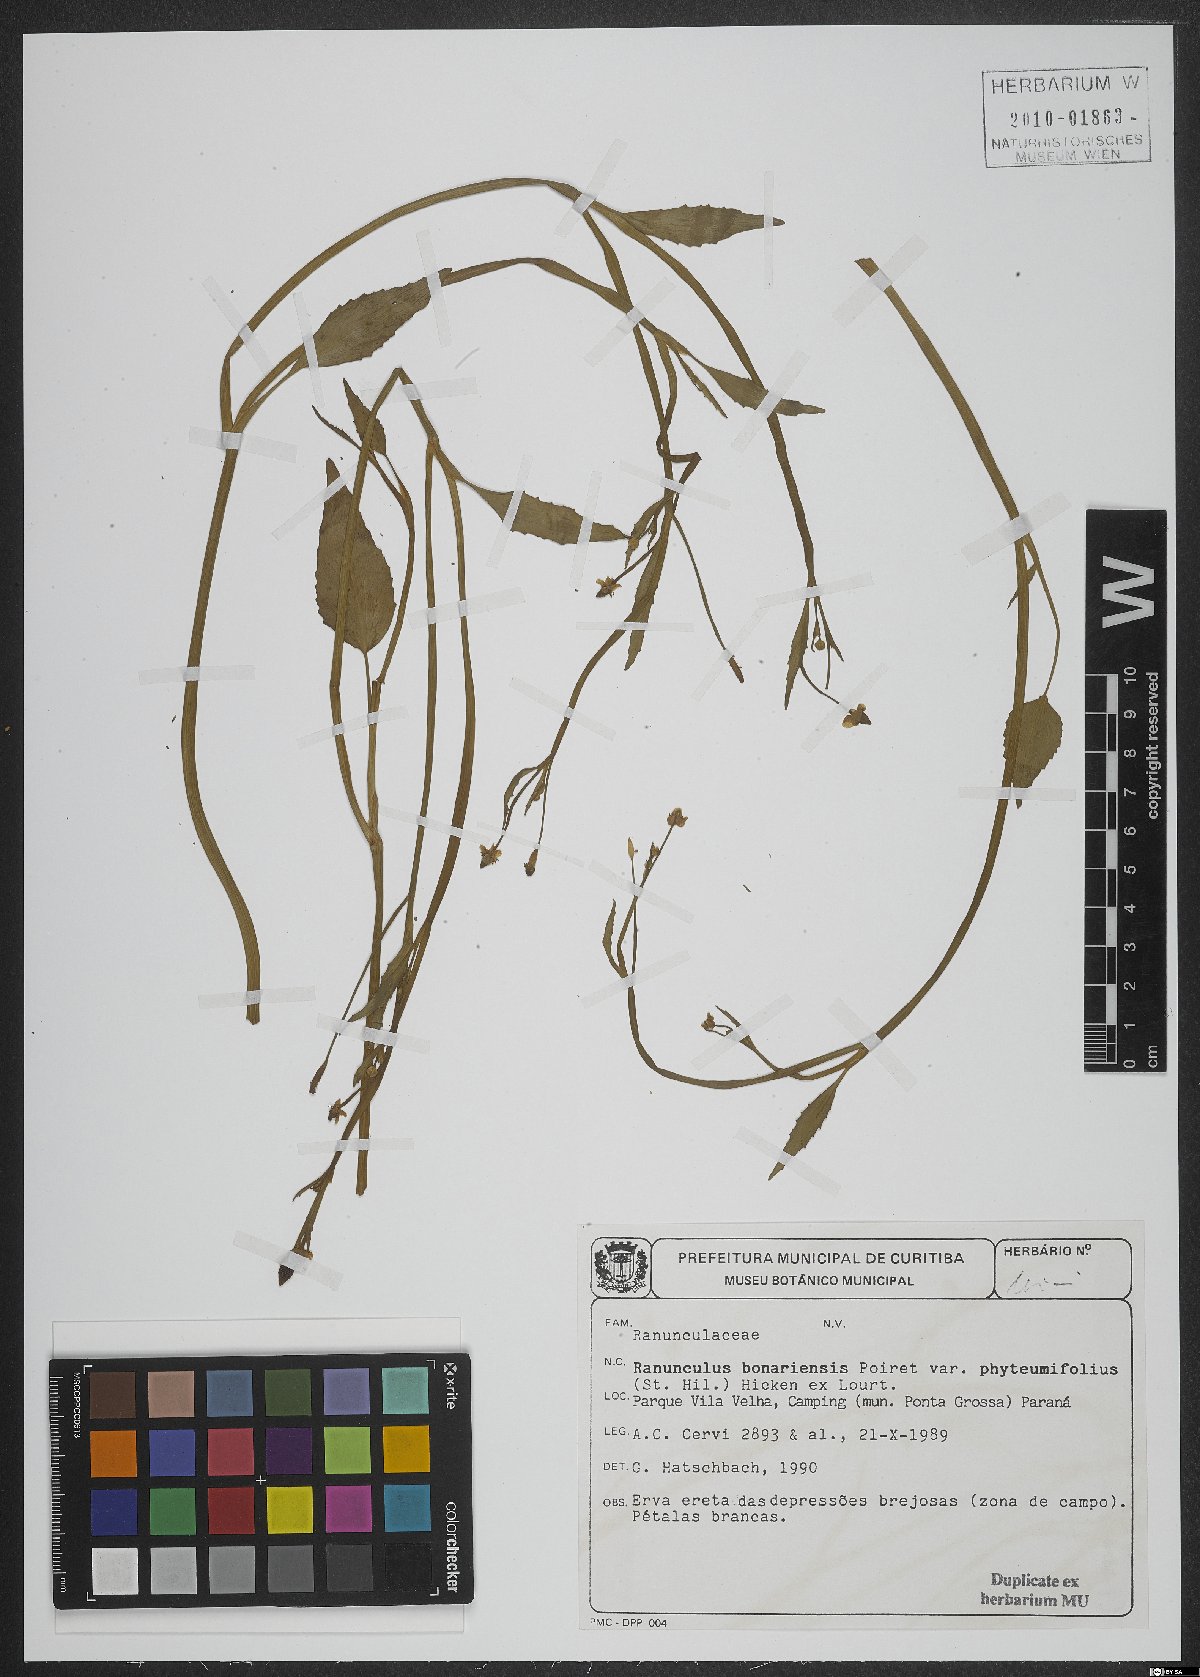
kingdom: Plantae
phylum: Tracheophyta
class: Magnoliopsida
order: Ranunculales
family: Ranunculaceae
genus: Ranunculus
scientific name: Ranunculus bonariensis
